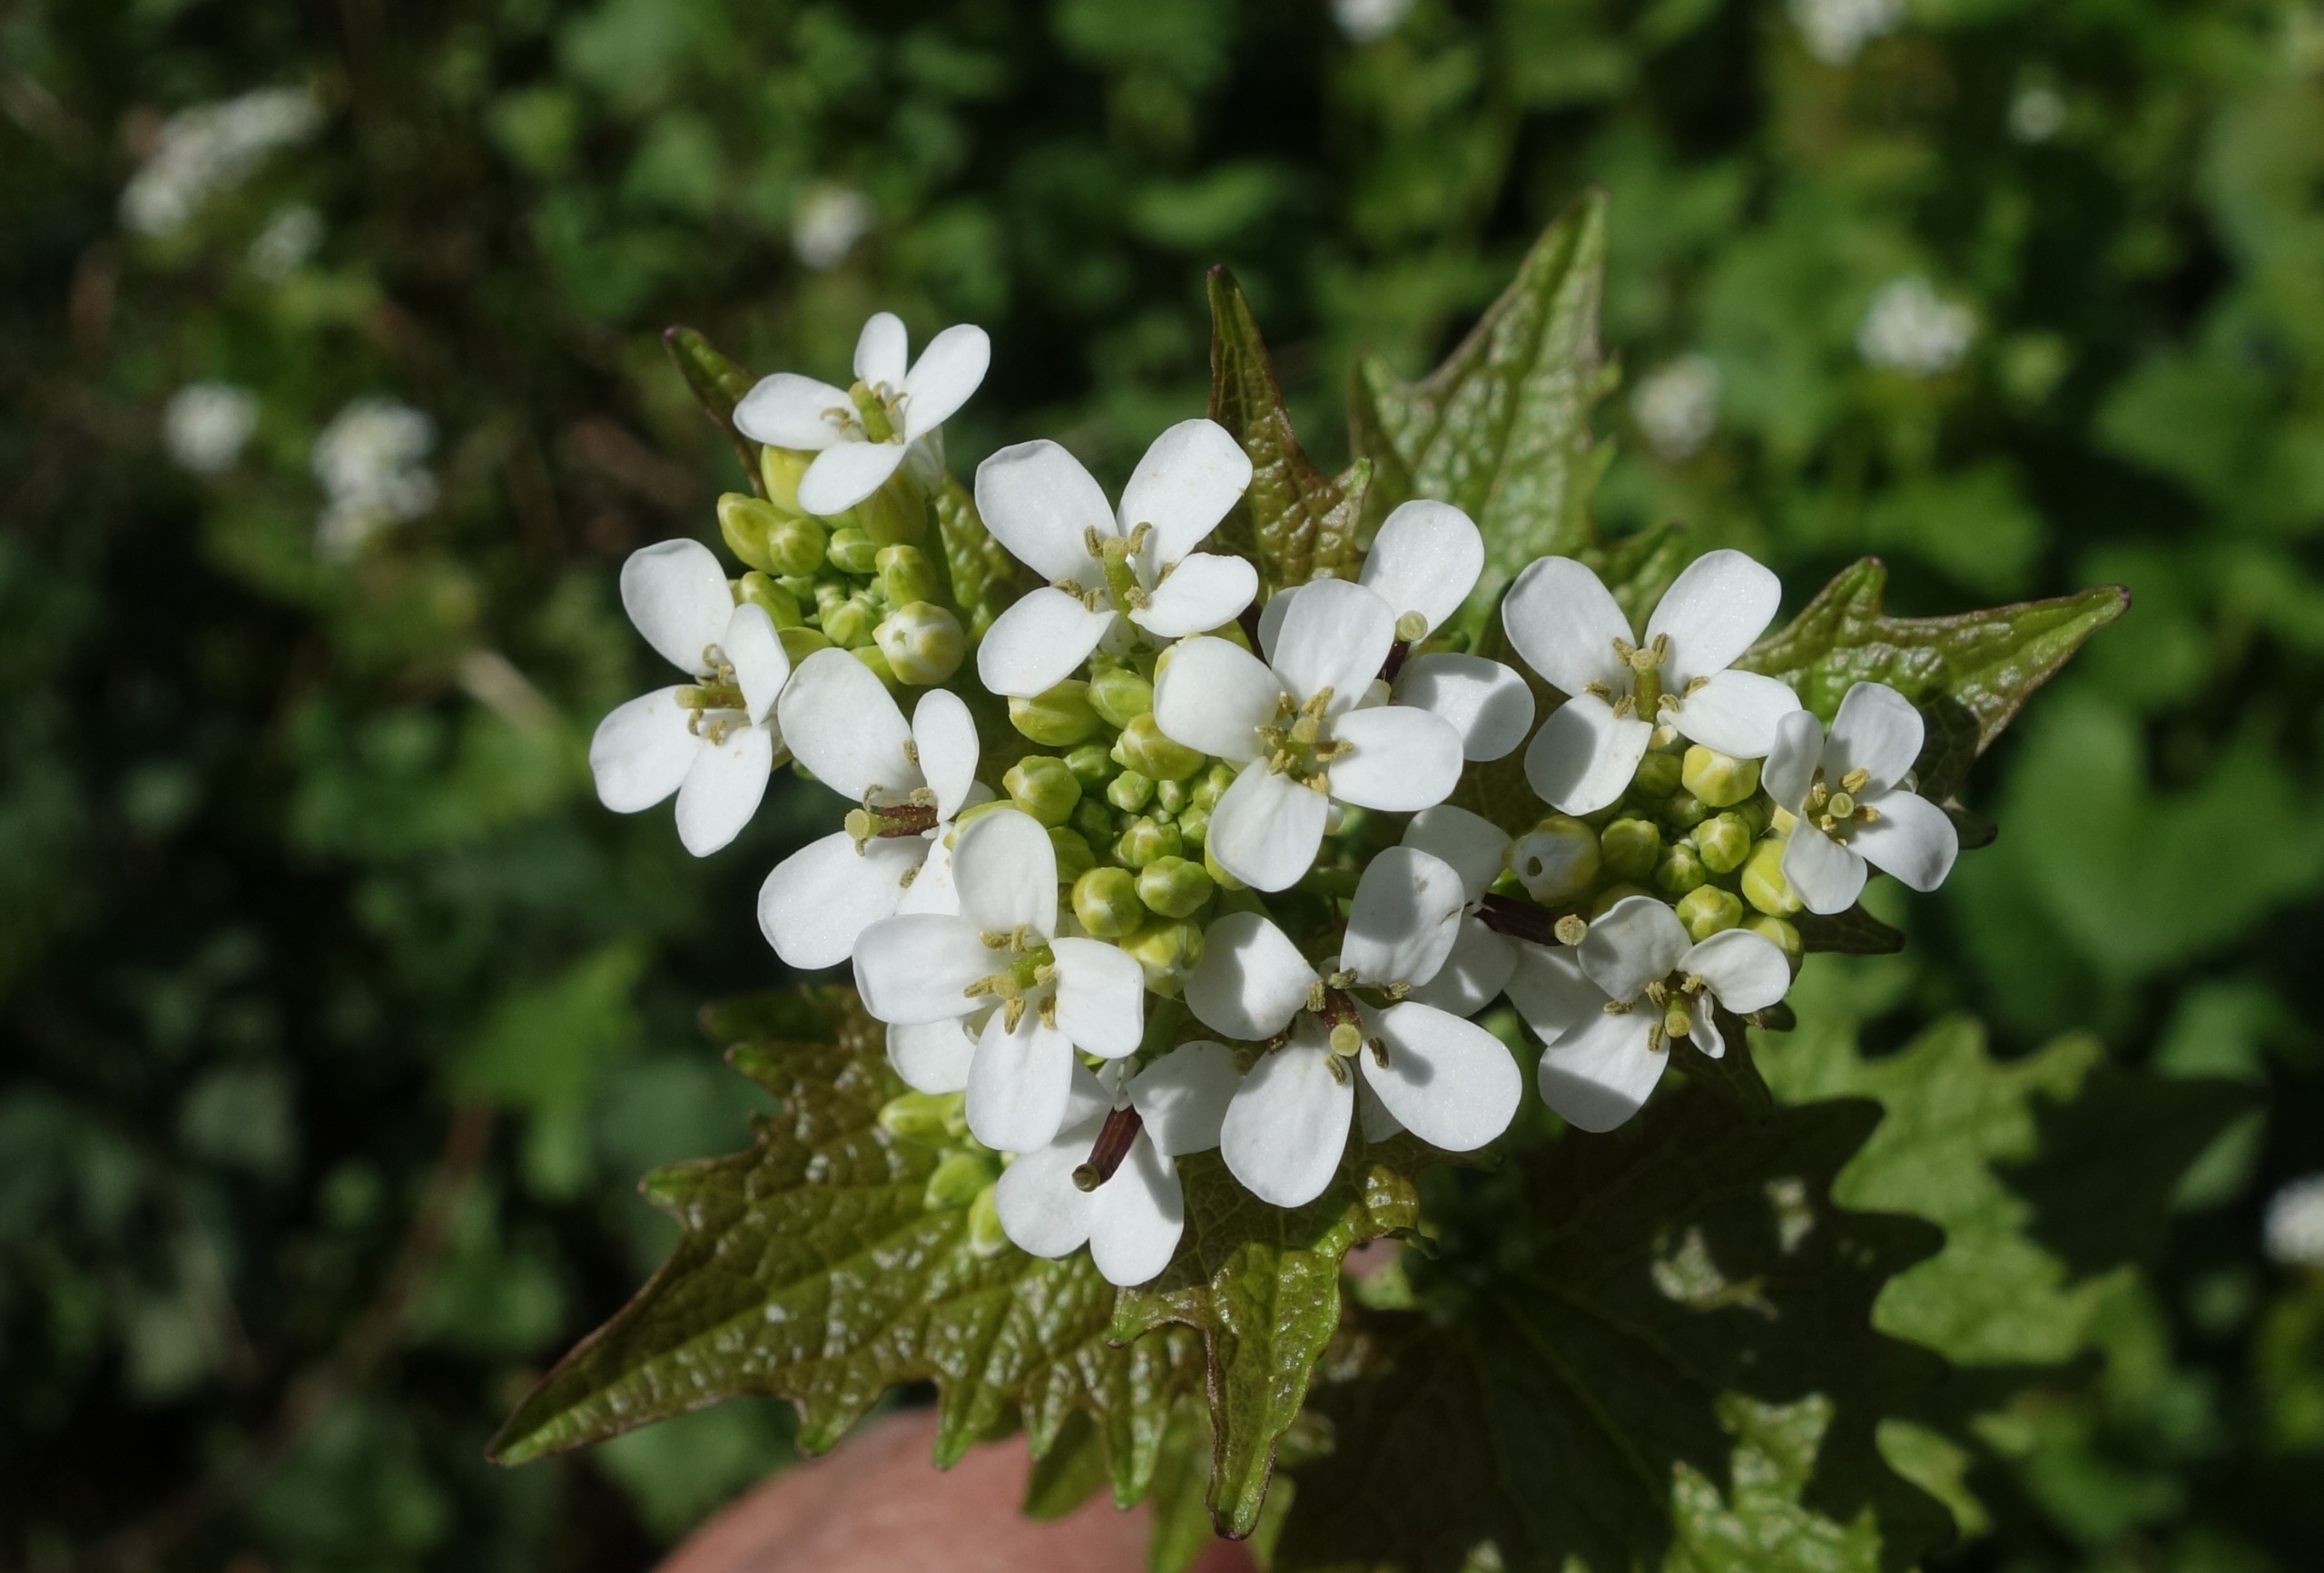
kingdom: Plantae
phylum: Tracheophyta
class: Magnoliopsida
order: Brassicales
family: Brassicaceae
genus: Alliaria
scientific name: Alliaria petiolata
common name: Løgkarse
